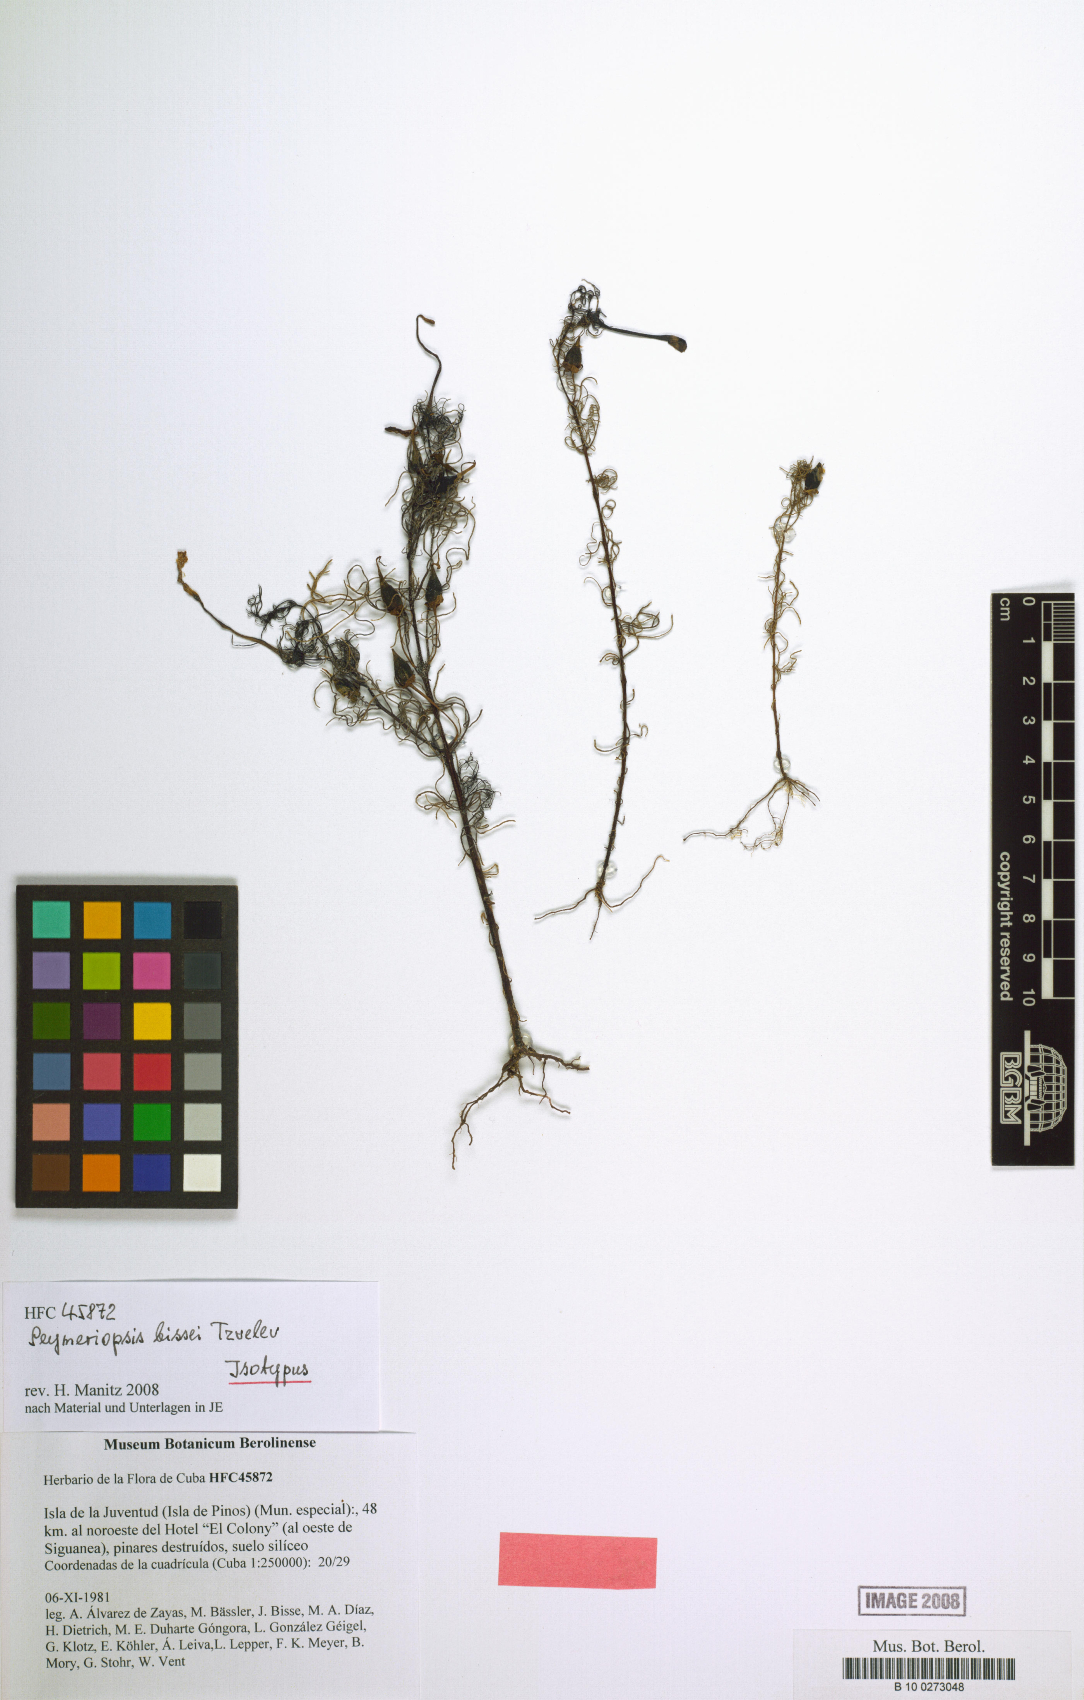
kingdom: Plantae
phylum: Tracheophyta
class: Magnoliopsida
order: Lamiales
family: Orobanchaceae
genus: Seymeriopsis
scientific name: Seymeriopsis bissei
